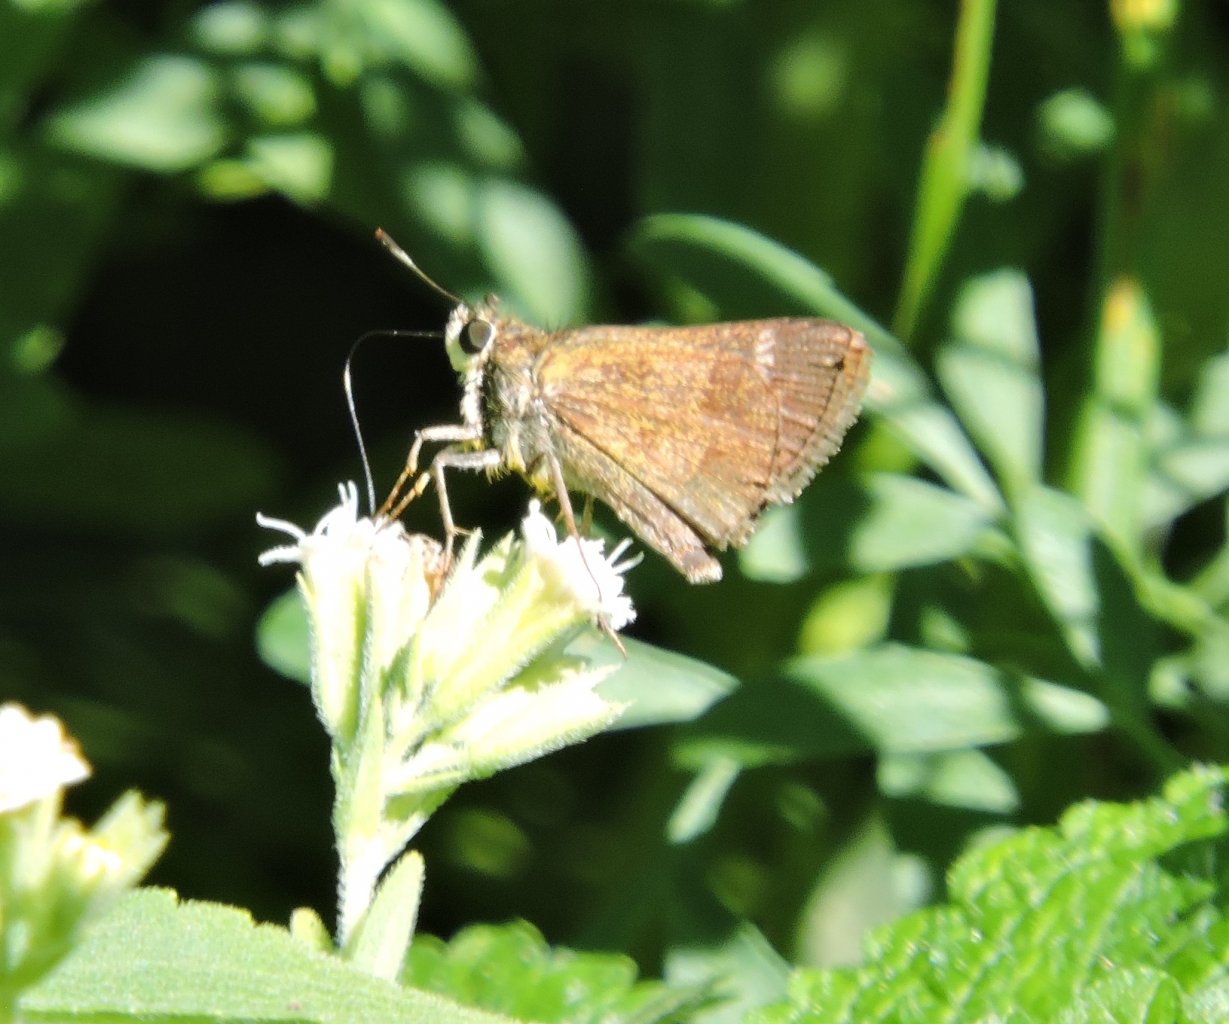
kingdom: Animalia
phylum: Arthropoda
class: Insecta
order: Lepidoptera
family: Hesperiidae
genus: Lerema
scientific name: Lerema accius
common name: Clouded Skipper
